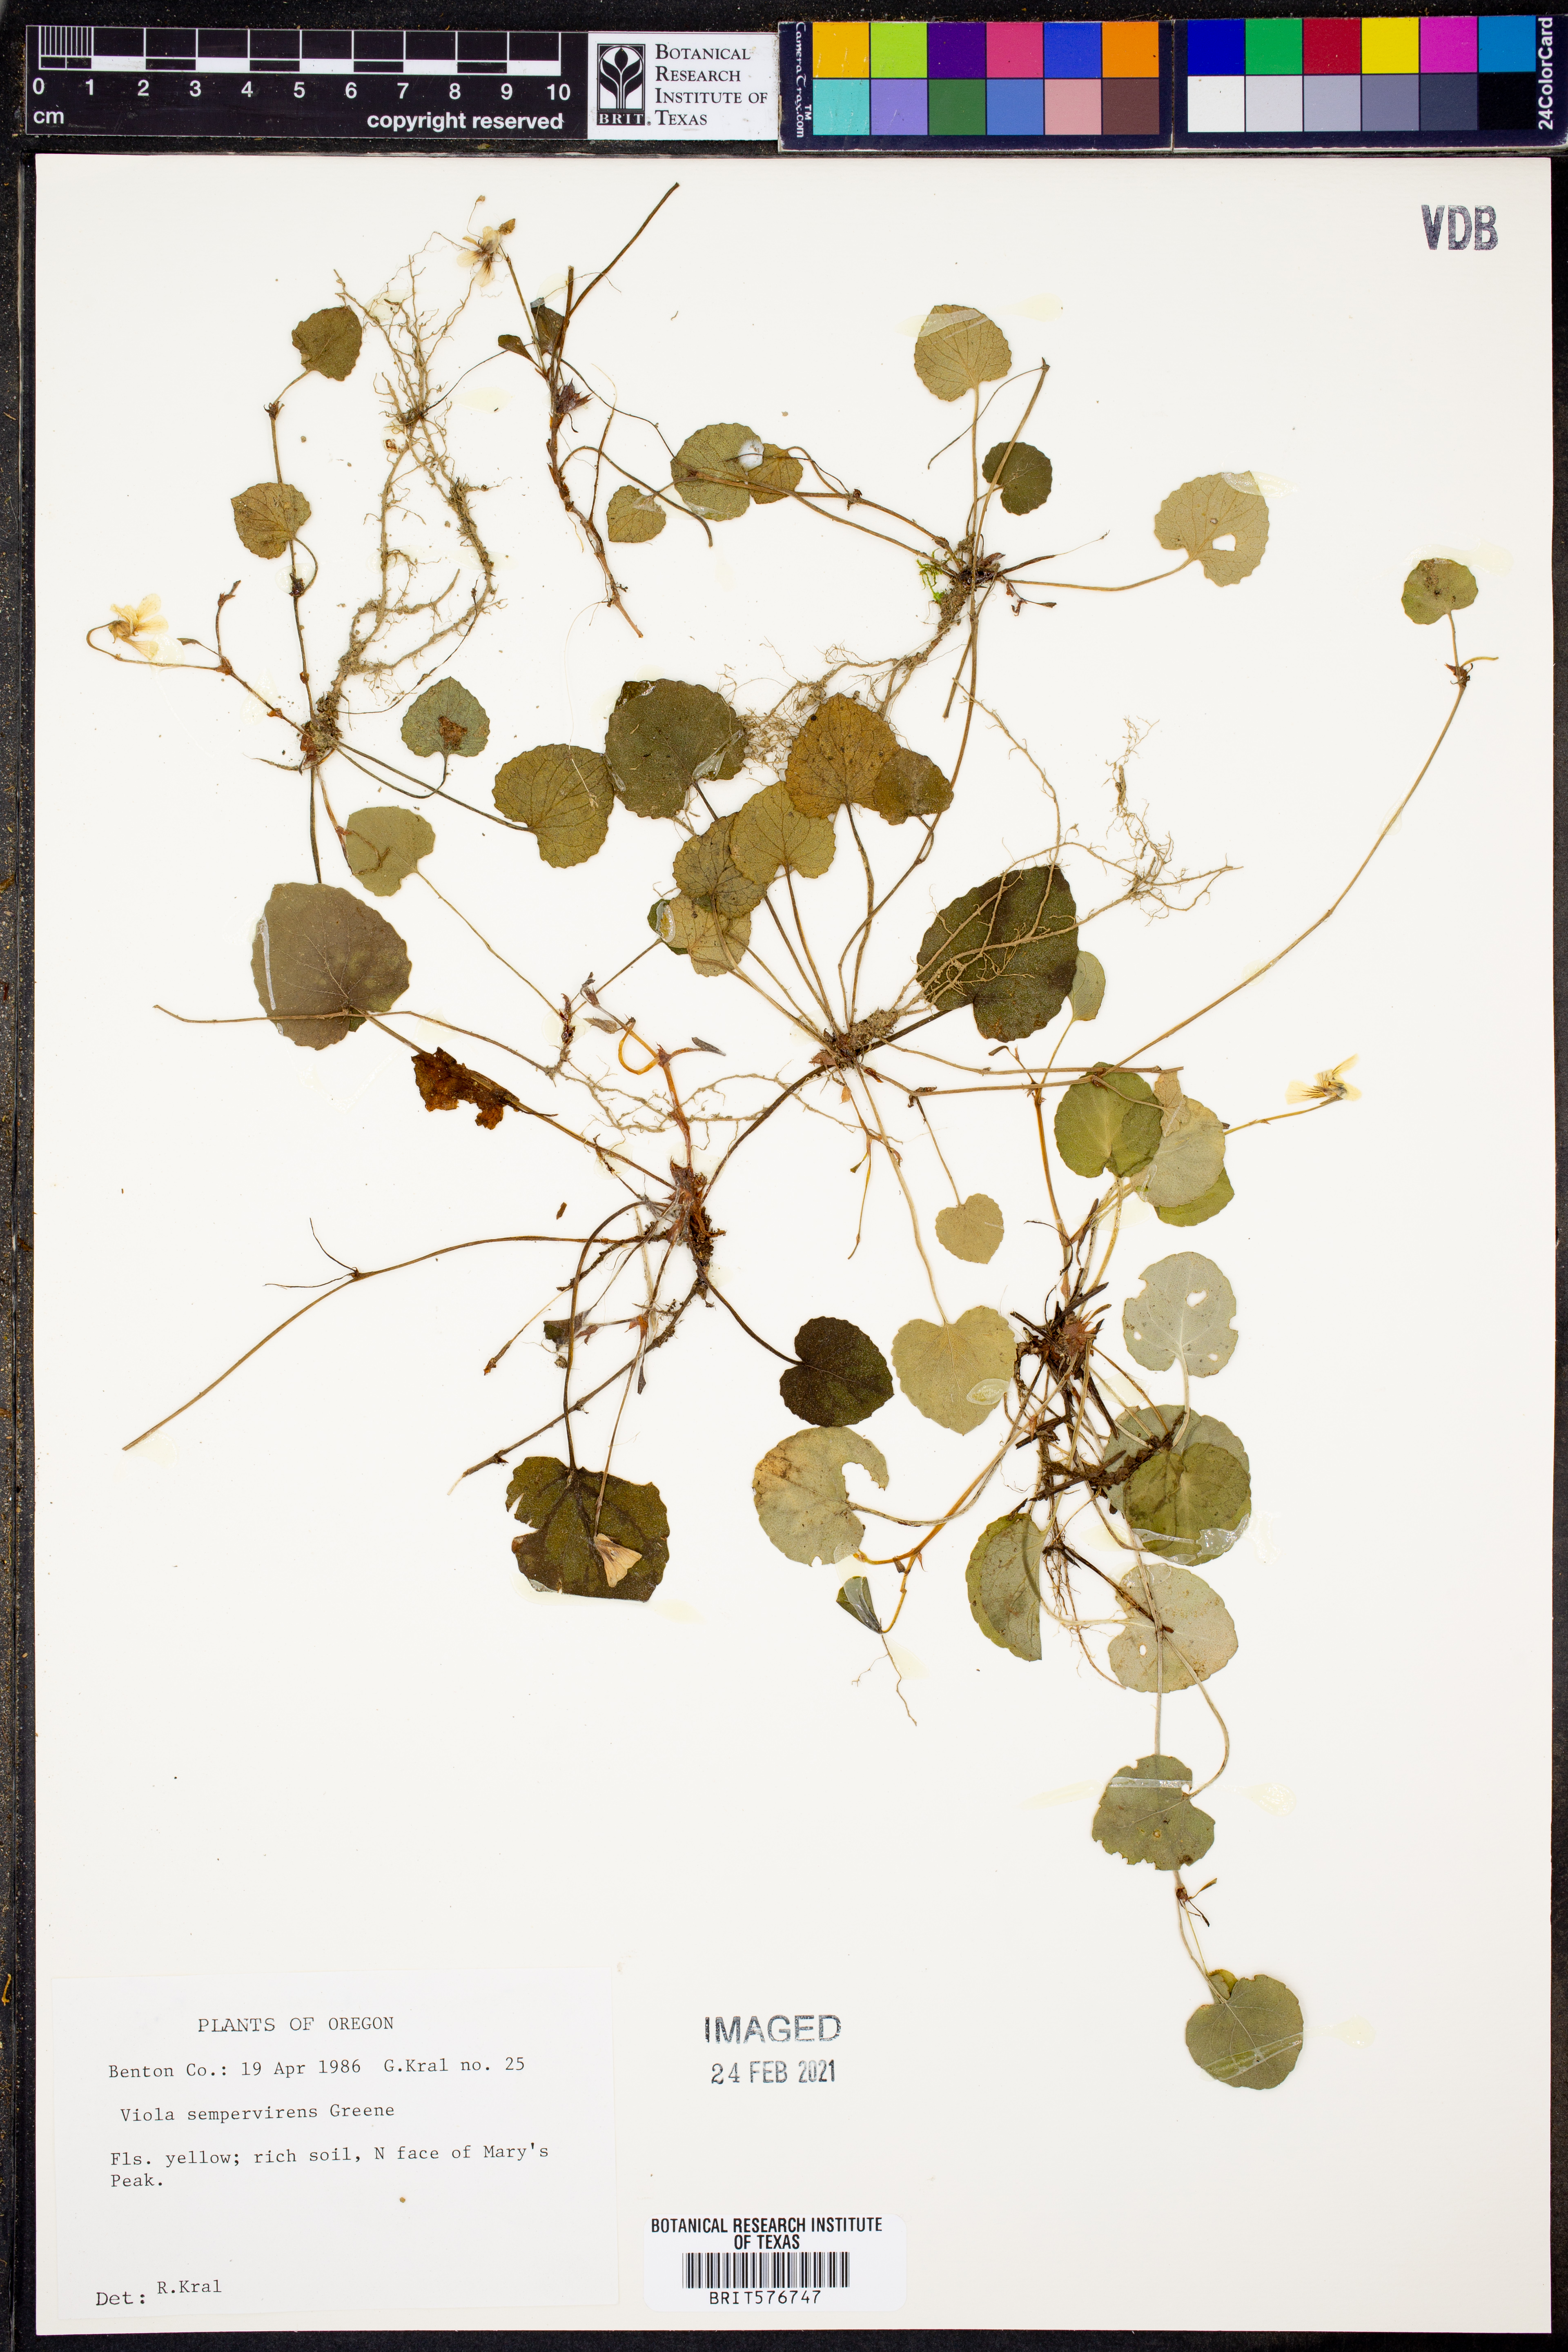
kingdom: Plantae
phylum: Tracheophyta
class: Magnoliopsida
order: Malpighiales
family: Violaceae
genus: Viola
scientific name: Viola sempervirens
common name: Evergreen violet
